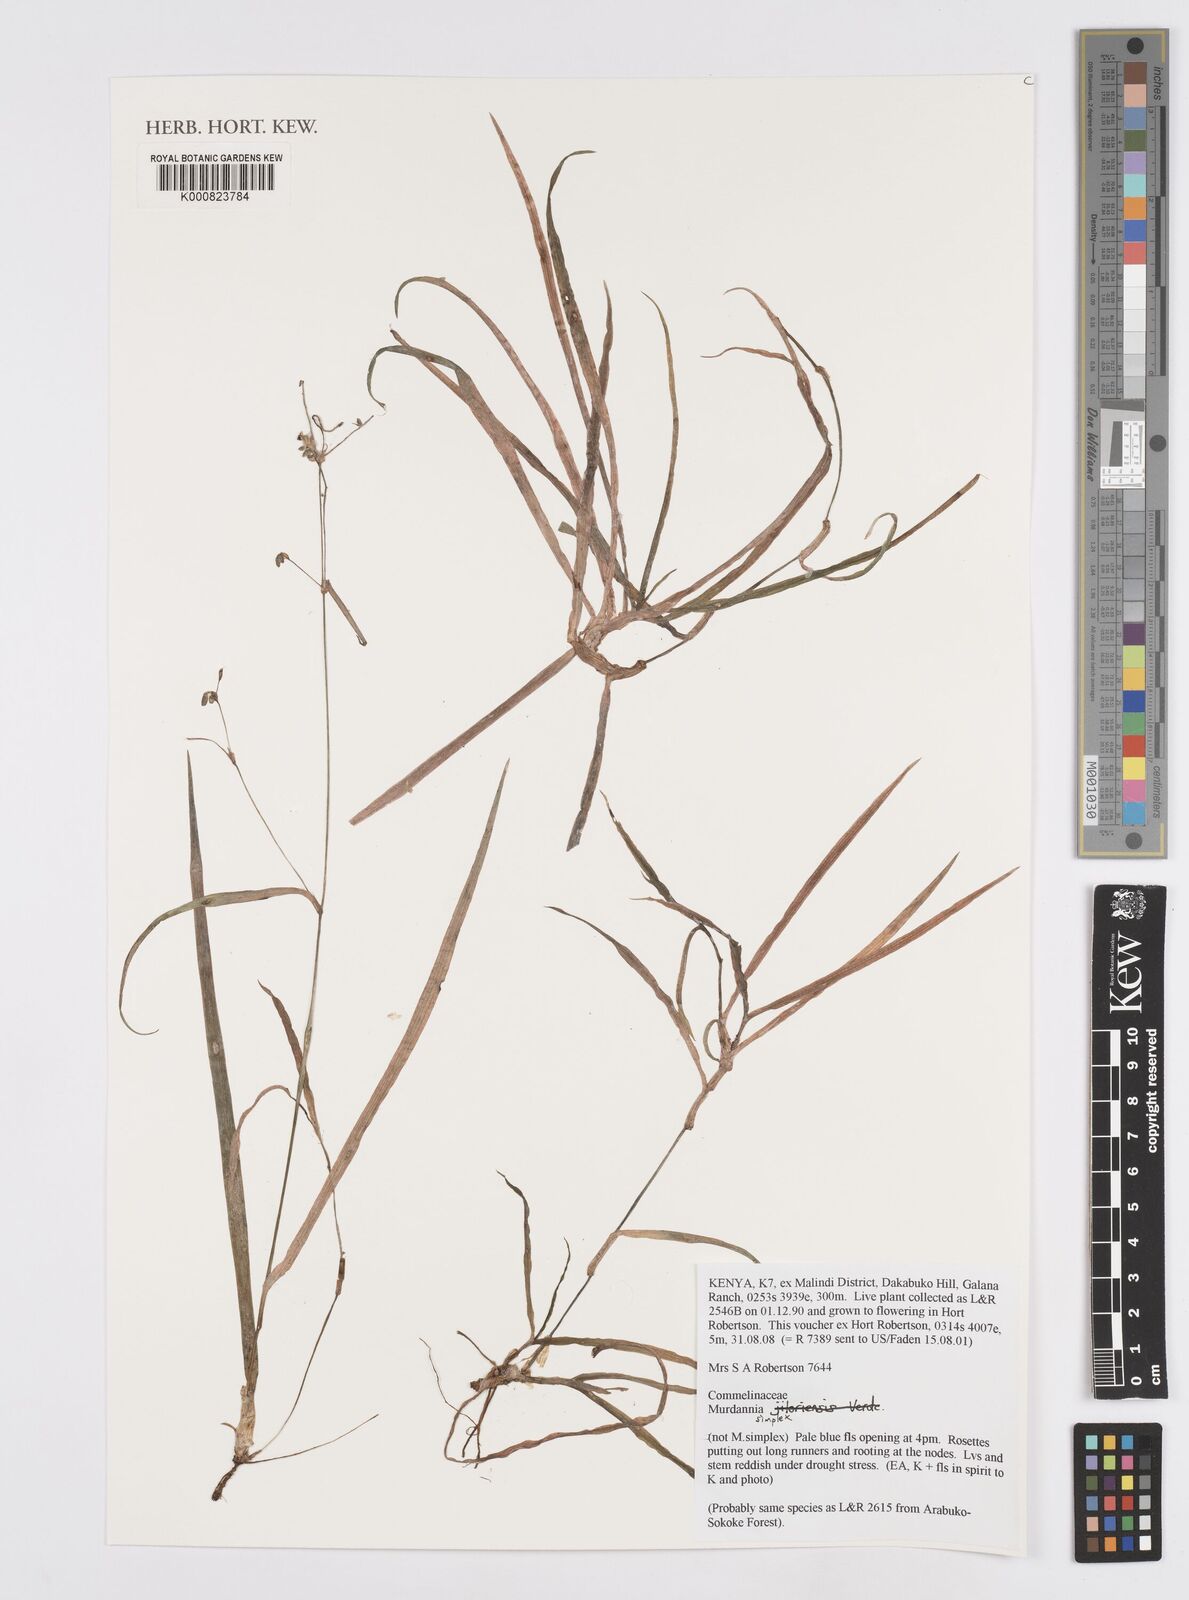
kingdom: Plantae
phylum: Tracheophyta
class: Liliopsida
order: Commelinales
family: Commelinaceae
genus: Murdannia
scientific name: Murdannia
